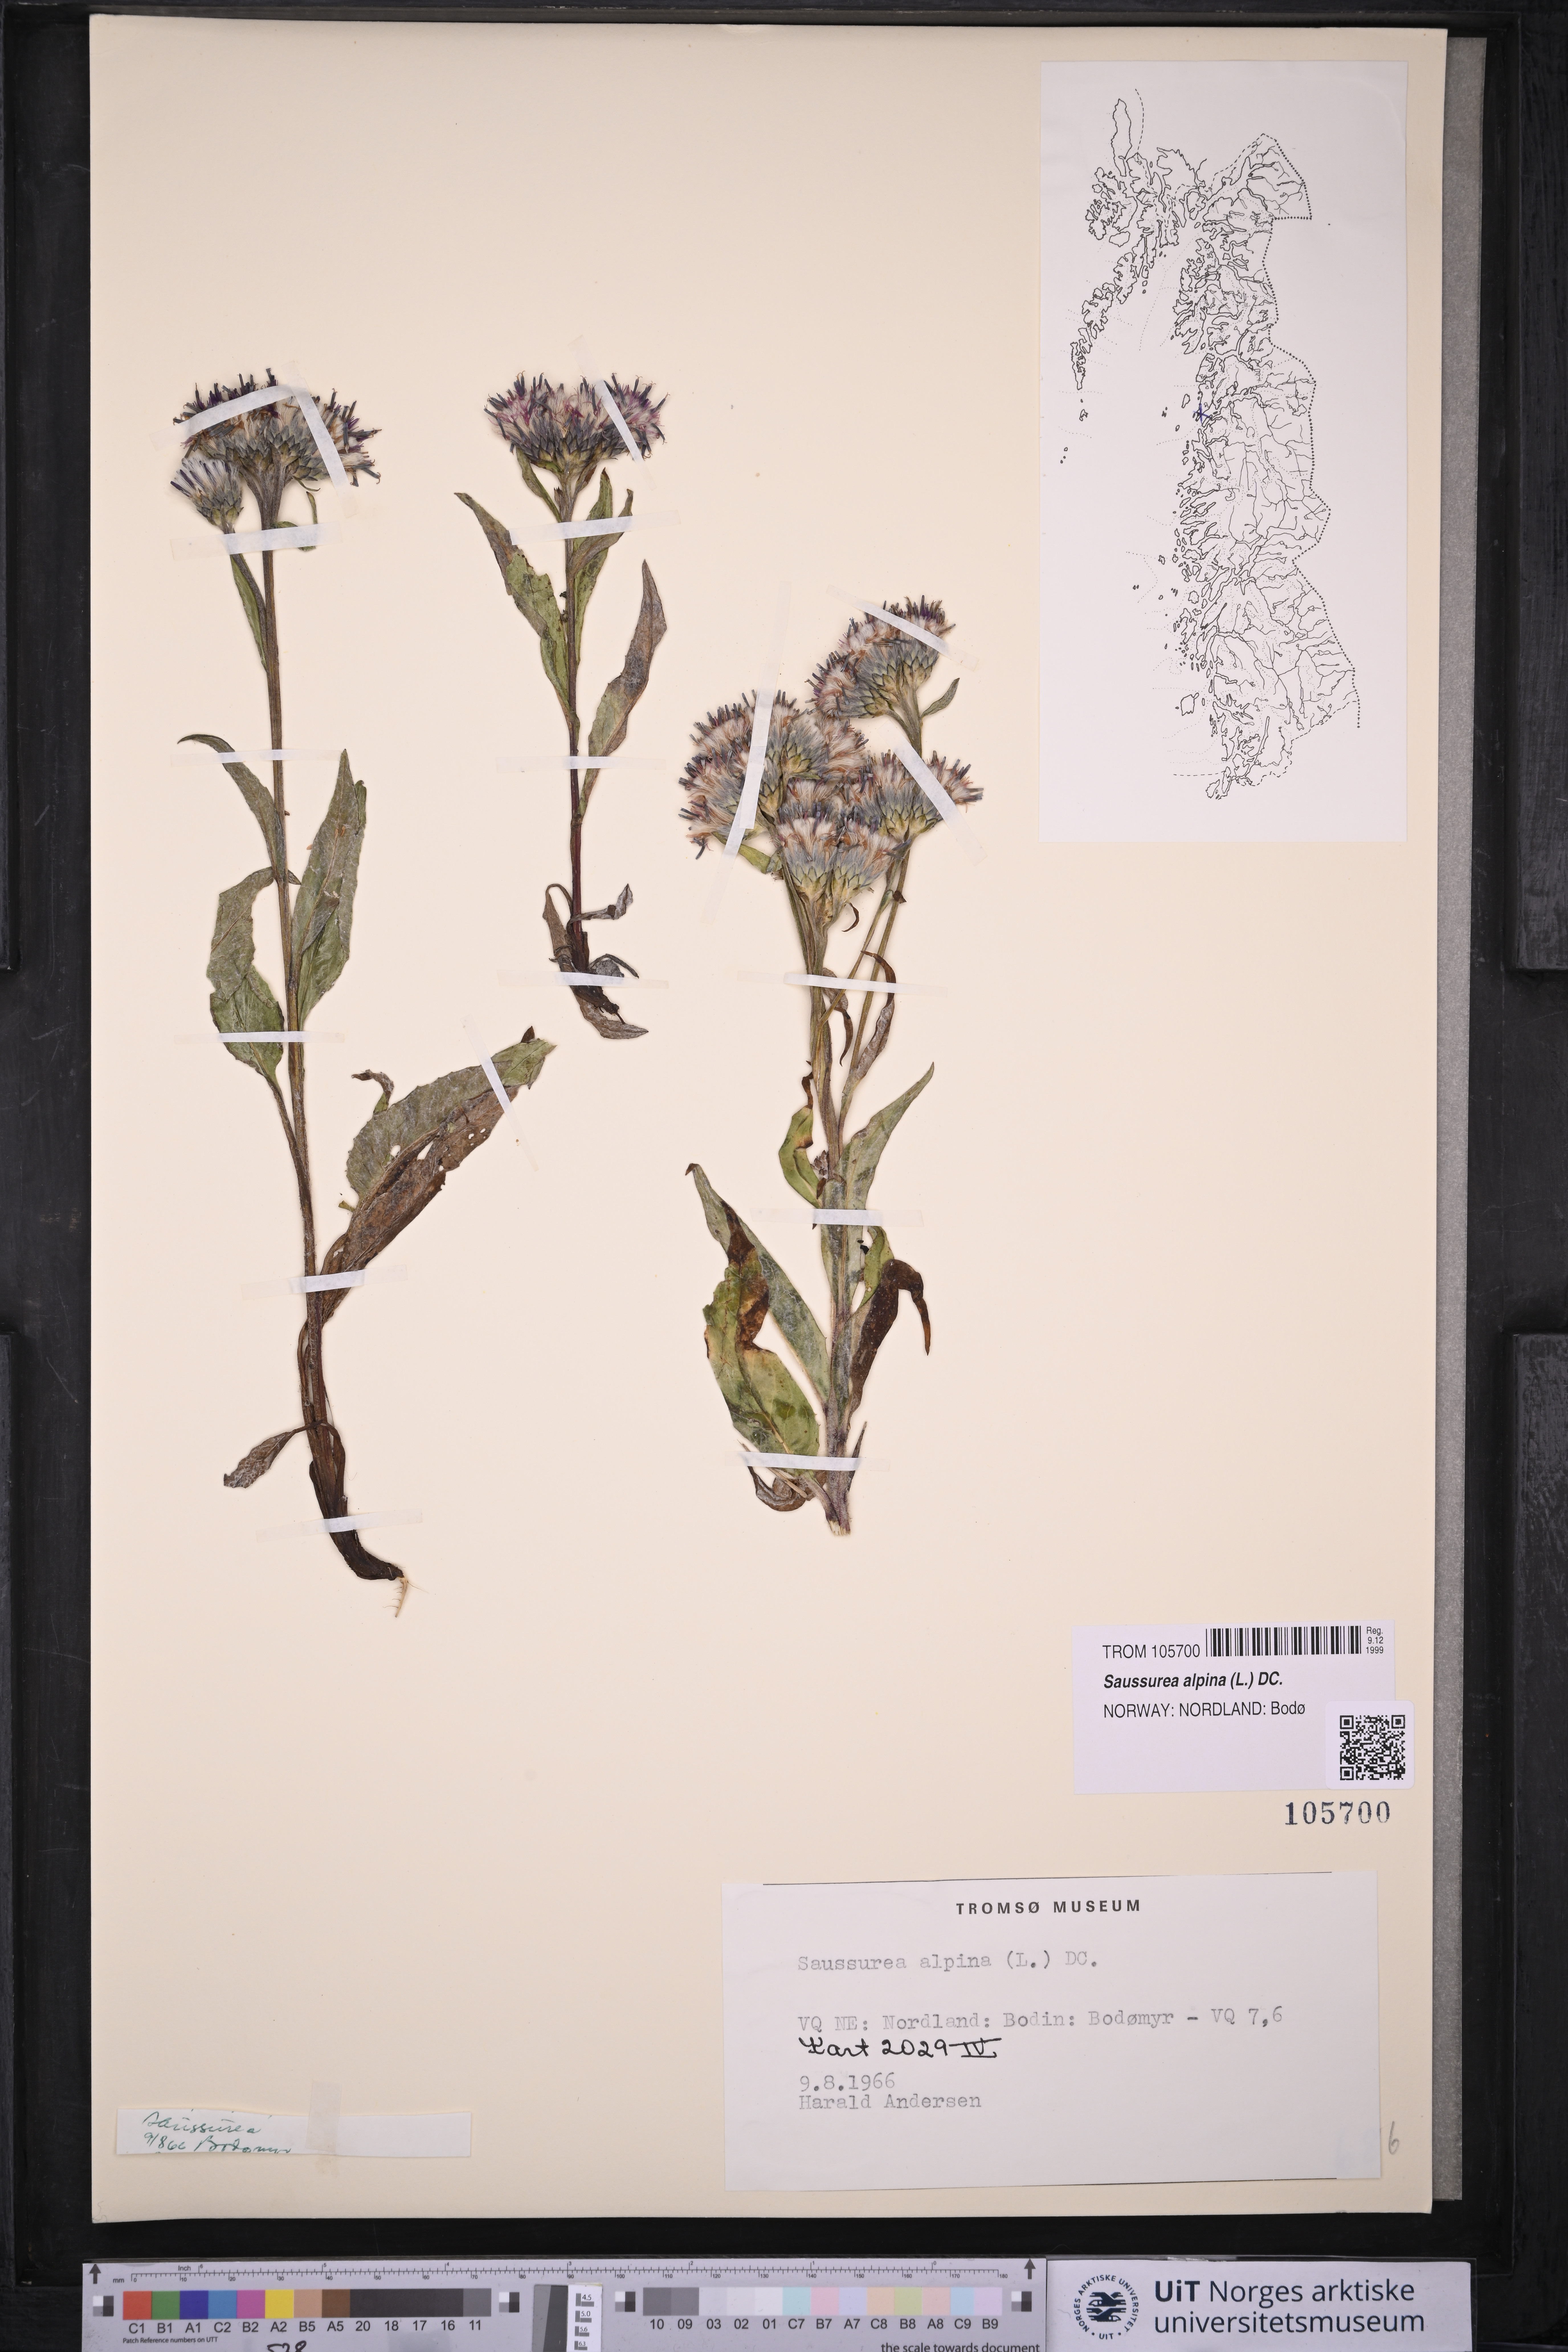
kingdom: Plantae
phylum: Tracheophyta
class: Magnoliopsida
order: Asterales
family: Asteraceae
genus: Saussurea
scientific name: Saussurea alpina
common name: Alpine saw-wort
